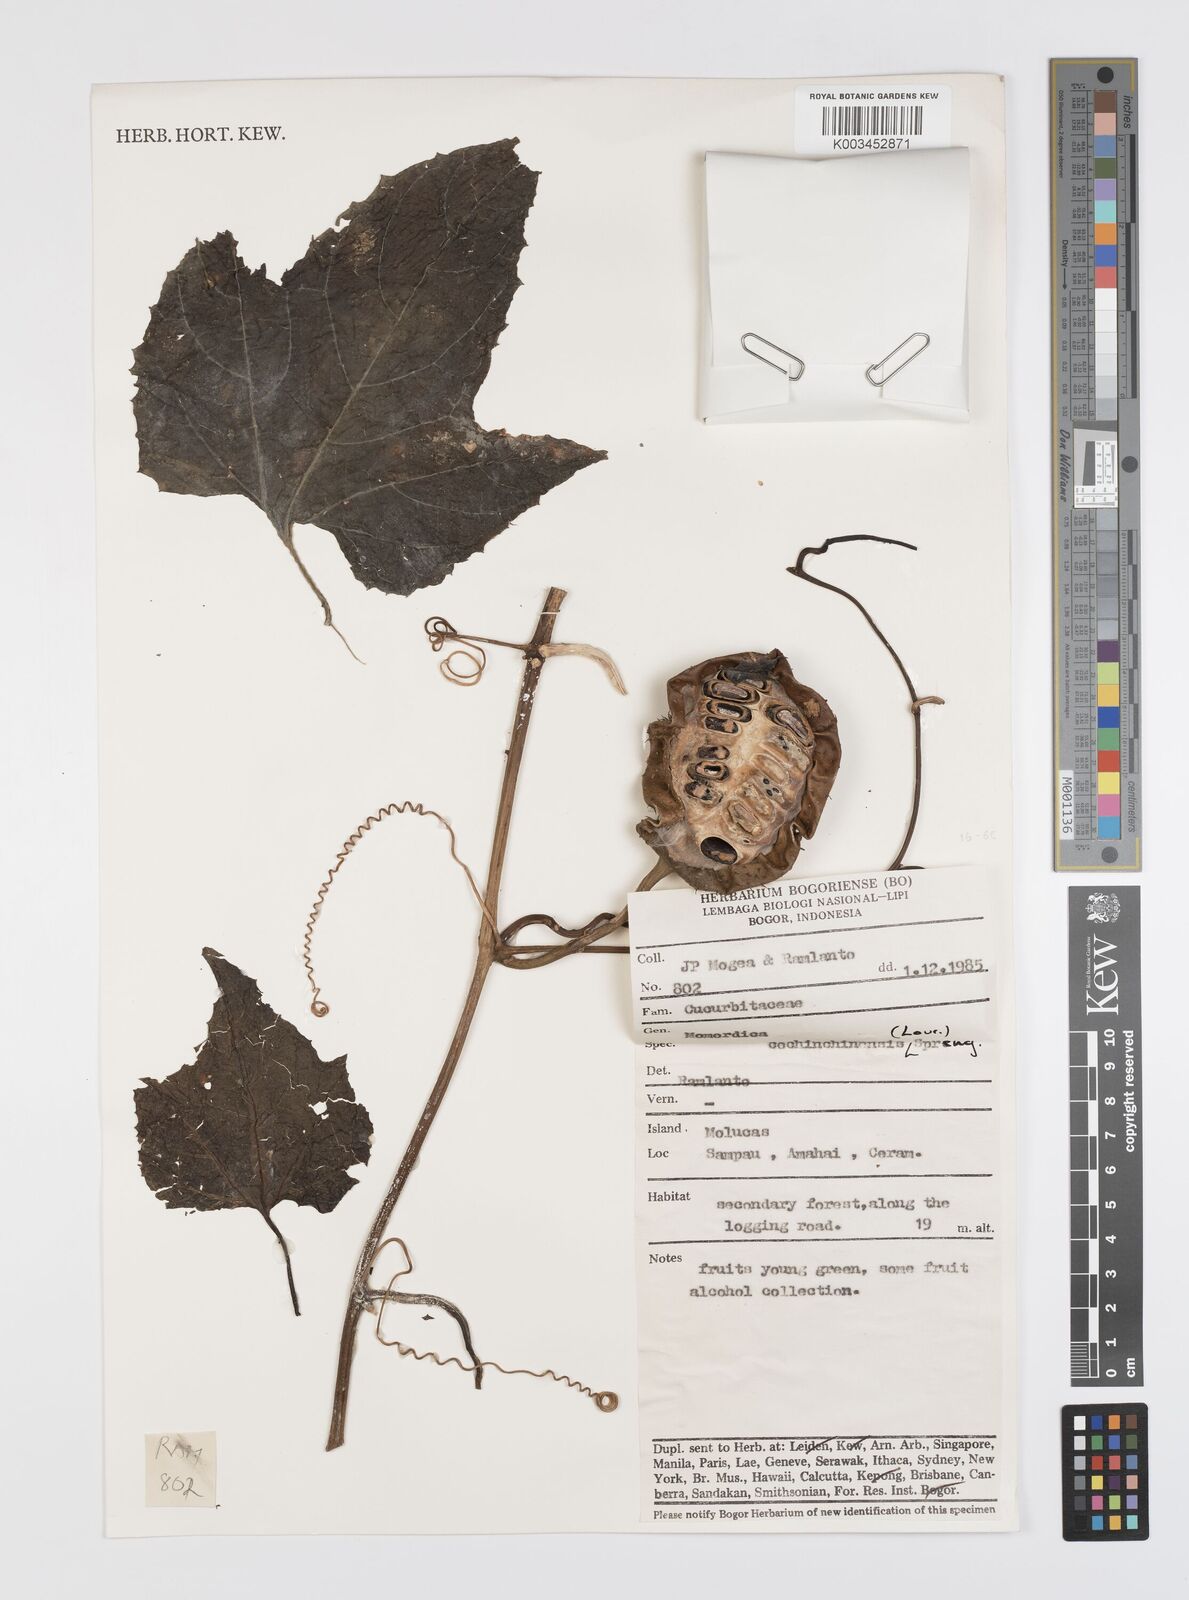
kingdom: Plantae
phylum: Tracheophyta
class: Magnoliopsida
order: Cucurbitales
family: Cucurbitaceae
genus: Momordica
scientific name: Momordica cochinchinensis
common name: Chinese bitter-cucumber
